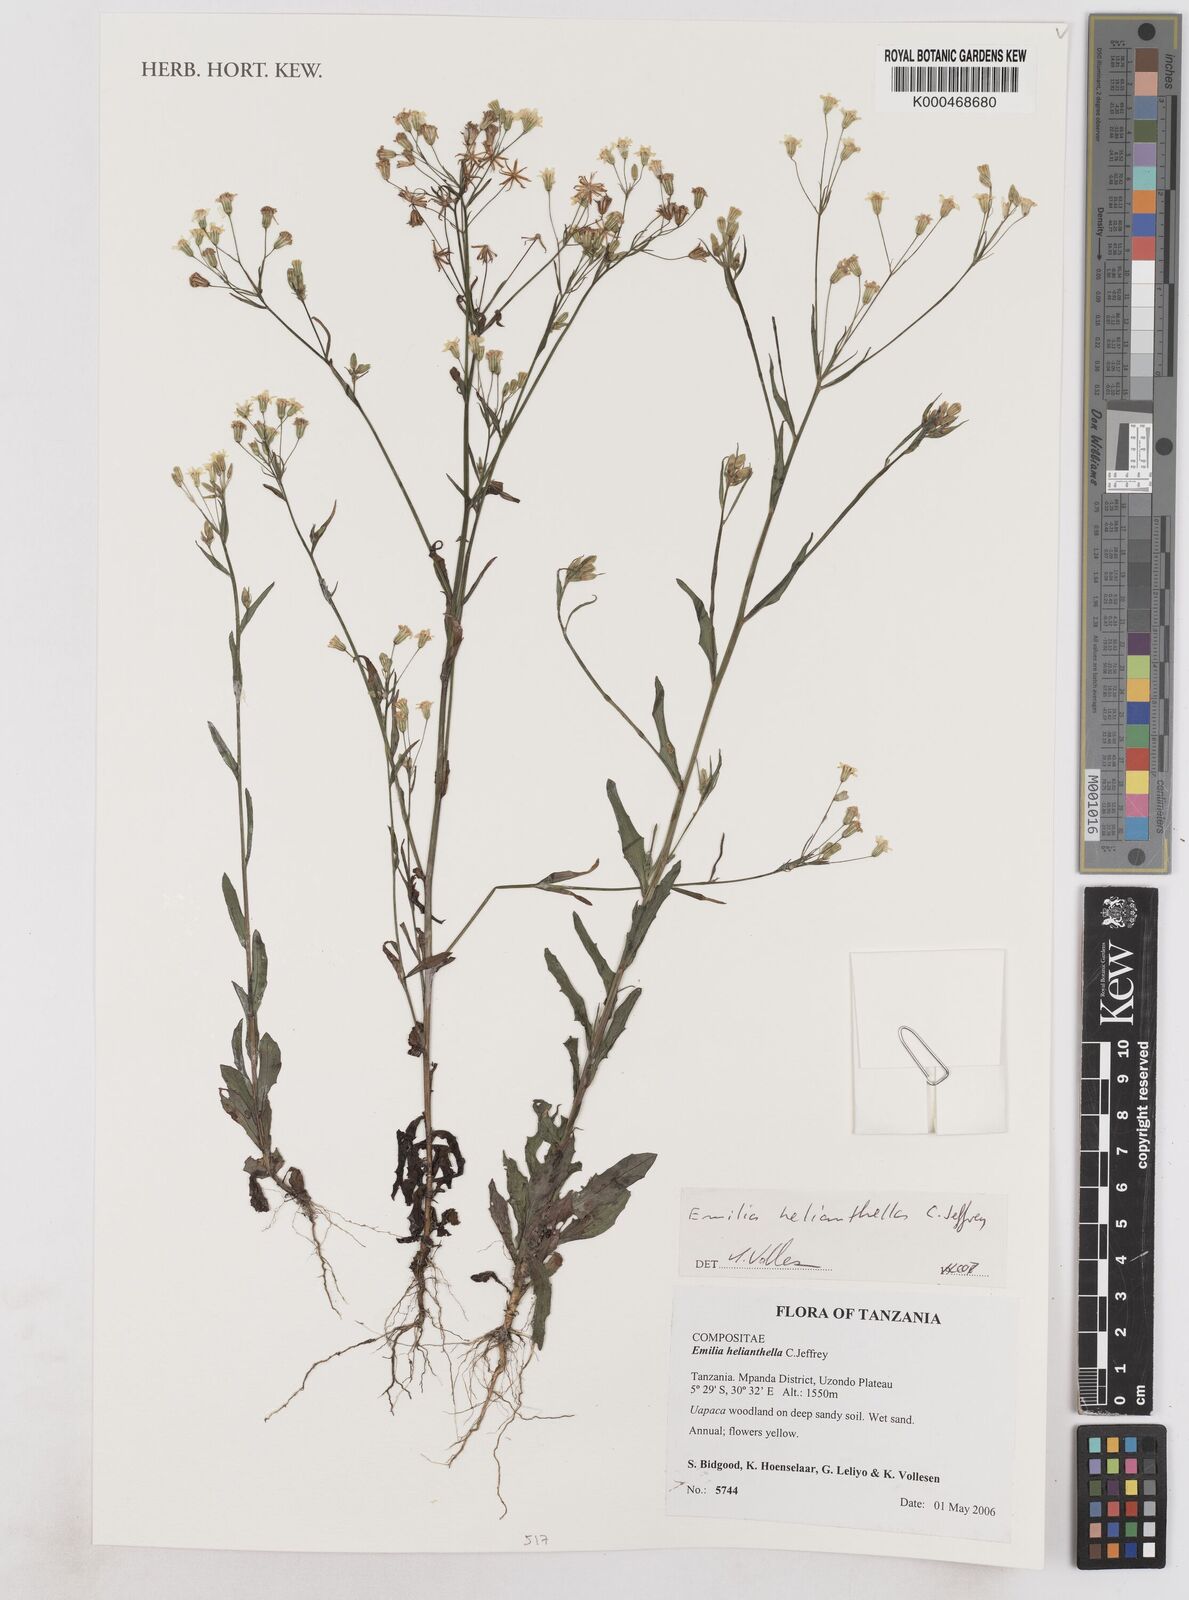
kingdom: Plantae
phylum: Tracheophyta
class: Magnoliopsida
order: Asterales
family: Asteraceae
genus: Emilia
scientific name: Emilia helianthella
